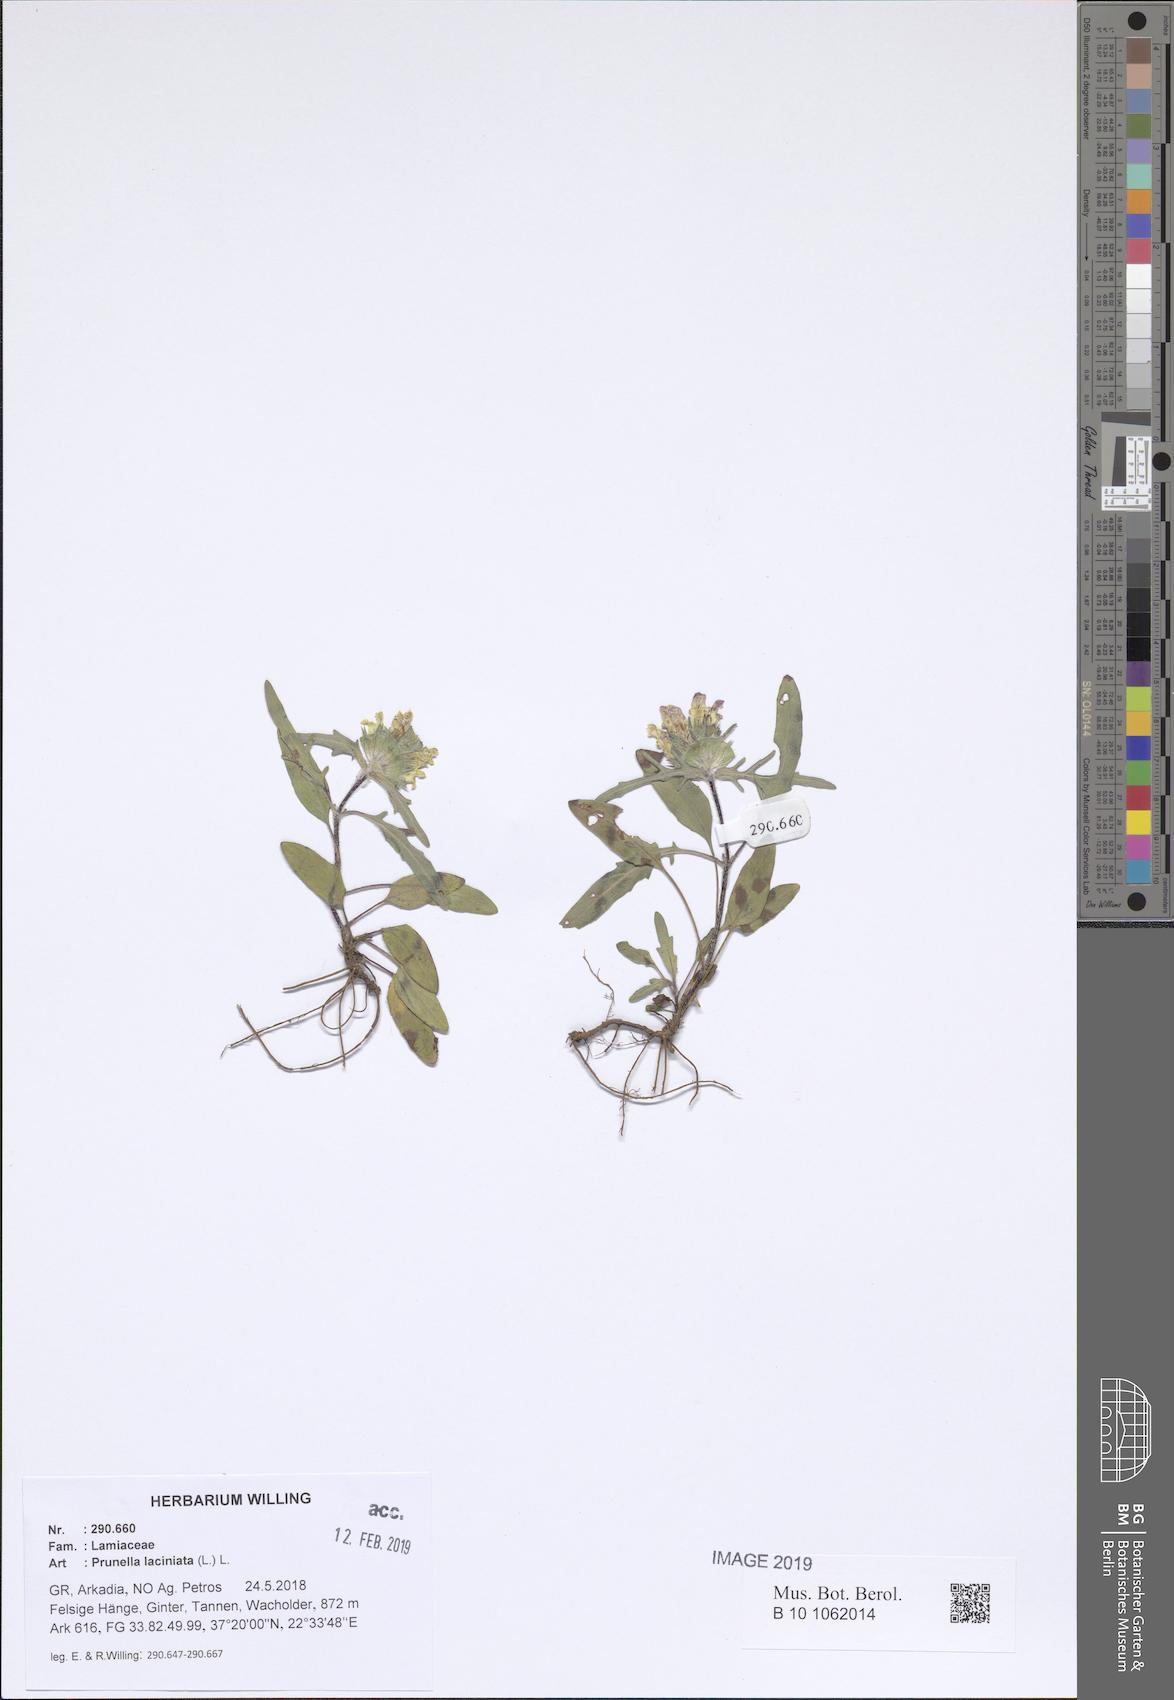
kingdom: Plantae
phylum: Tracheophyta
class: Magnoliopsida
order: Lamiales
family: Lamiaceae
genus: Prunella
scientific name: Prunella laciniata
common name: Cut-leaved selfheal
